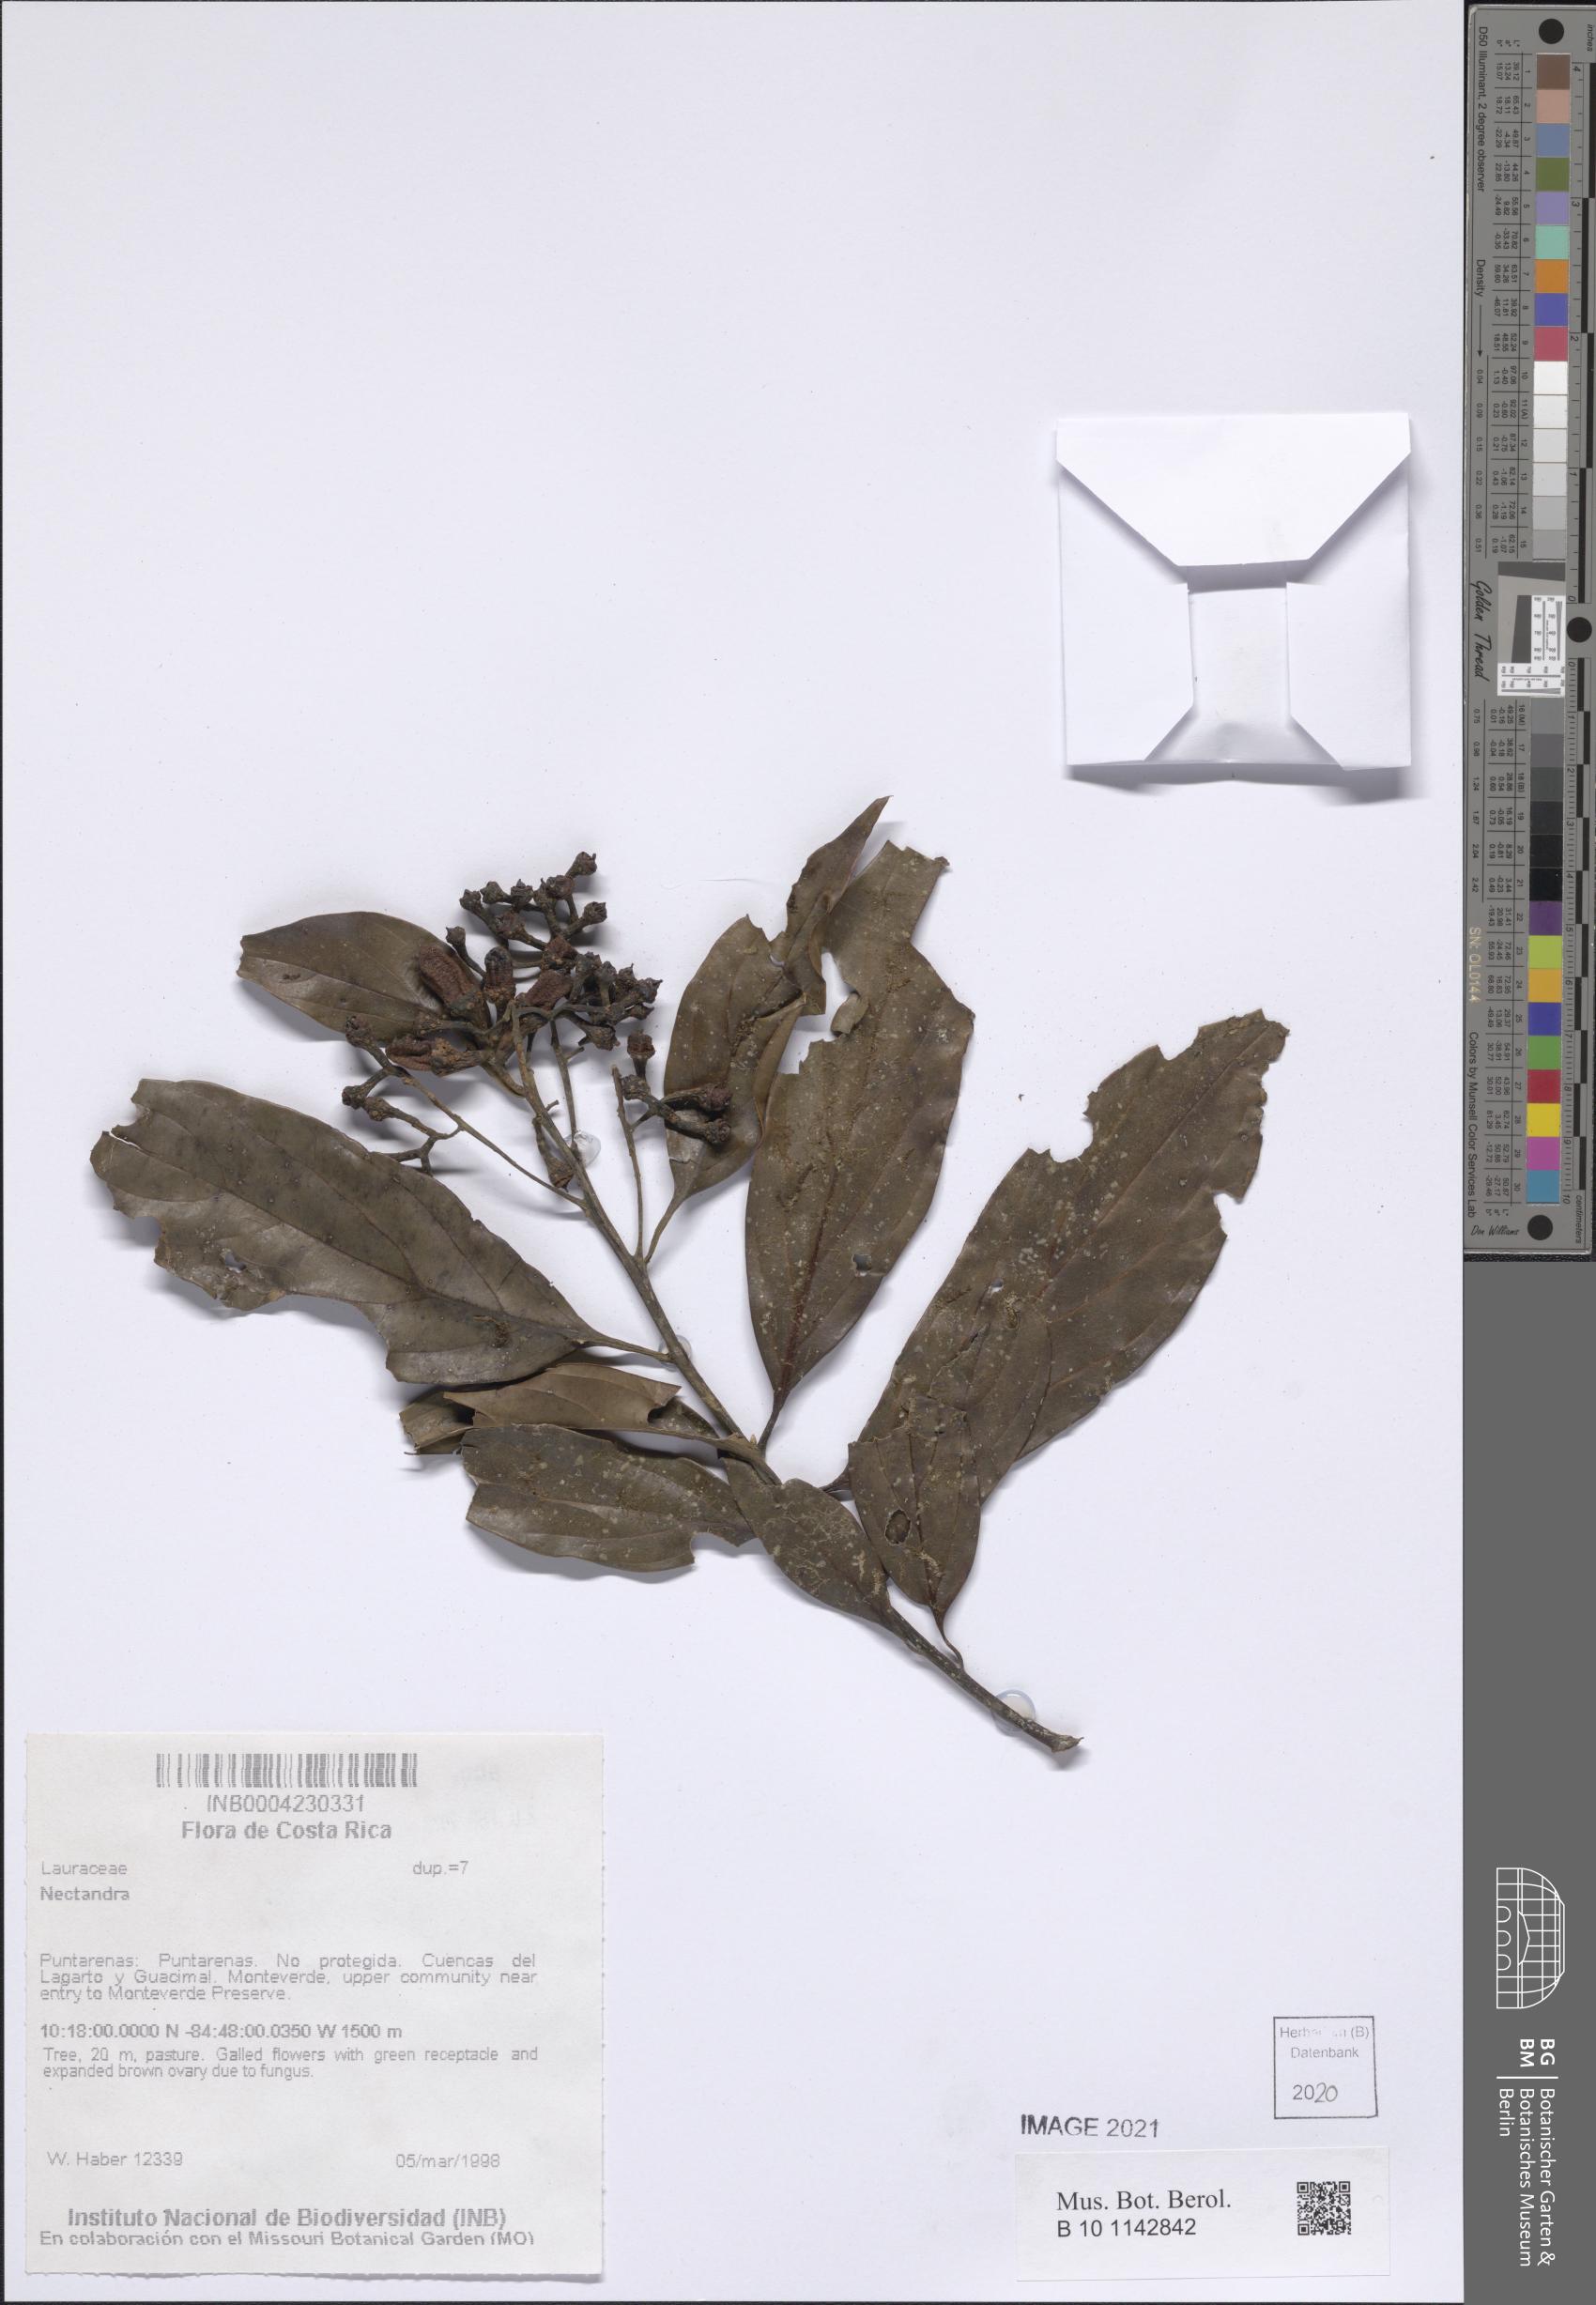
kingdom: Plantae
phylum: Tracheophyta
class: Magnoliopsida
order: Laurales
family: Lauraceae
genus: Nectandra
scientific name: Nectandra
